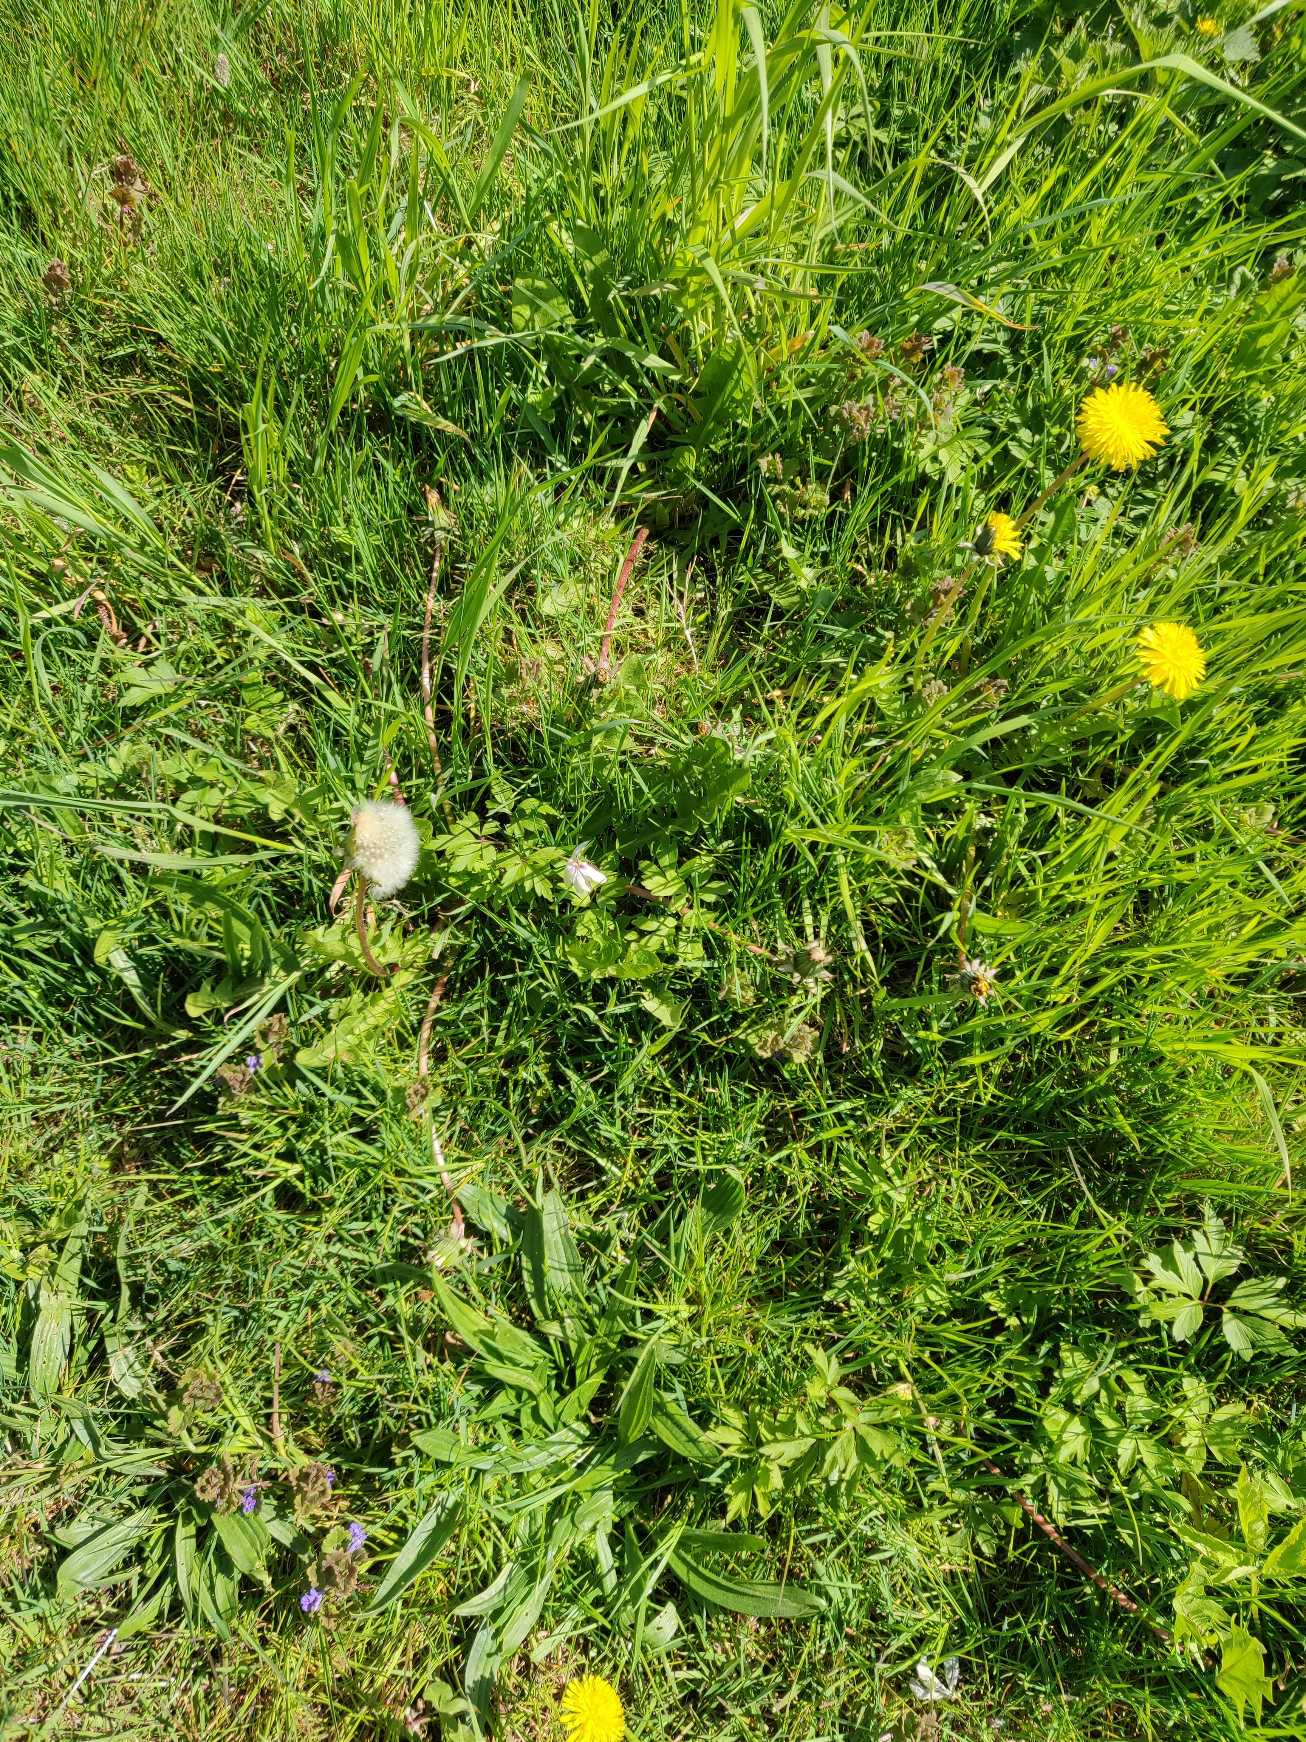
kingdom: Plantae
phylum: Tracheophyta
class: Magnoliopsida
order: Asterales
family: Asteraceae
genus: Taraxacum
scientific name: Taraxacum
